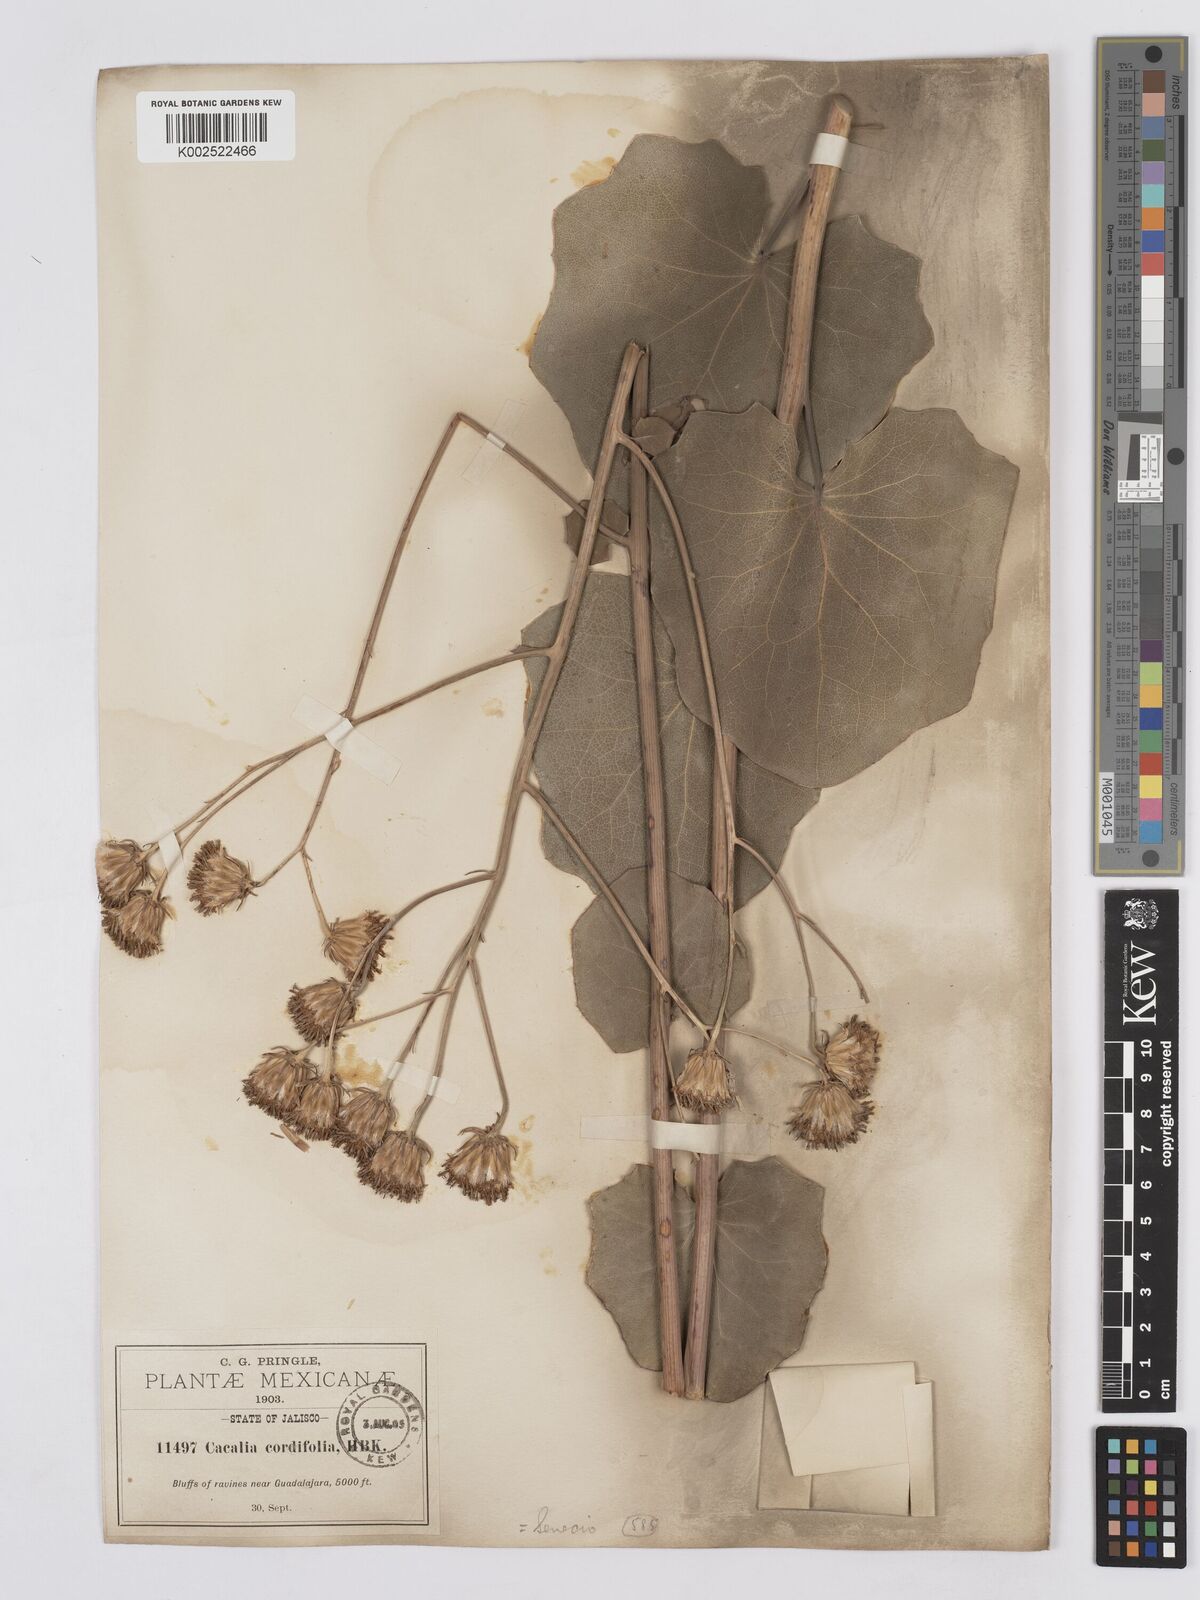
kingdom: Plantae
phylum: Tracheophyta
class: Magnoliopsida
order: Asterales
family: Asteraceae
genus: Roldana
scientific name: Roldana sessilifolia
